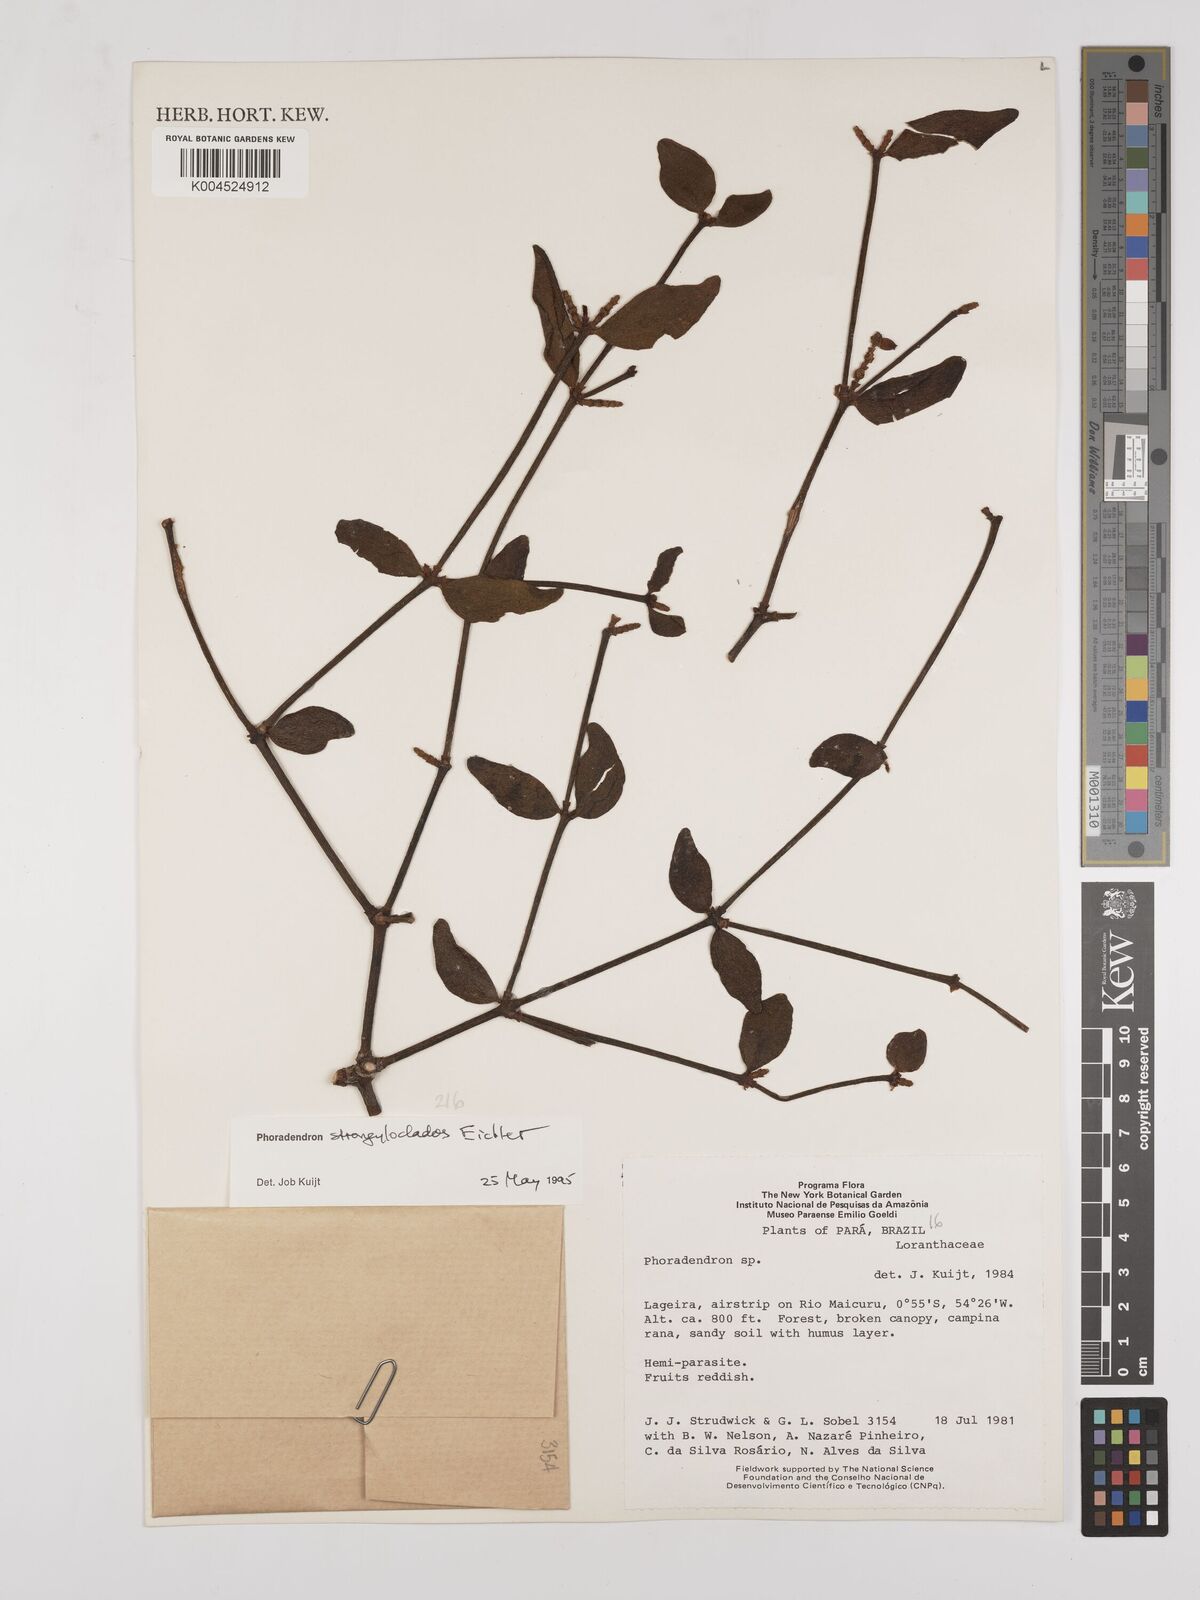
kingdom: Plantae
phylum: Tracheophyta
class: Magnoliopsida
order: Santalales
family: Viscaceae
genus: Phoradendron
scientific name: Phoradendron strongyloclados
